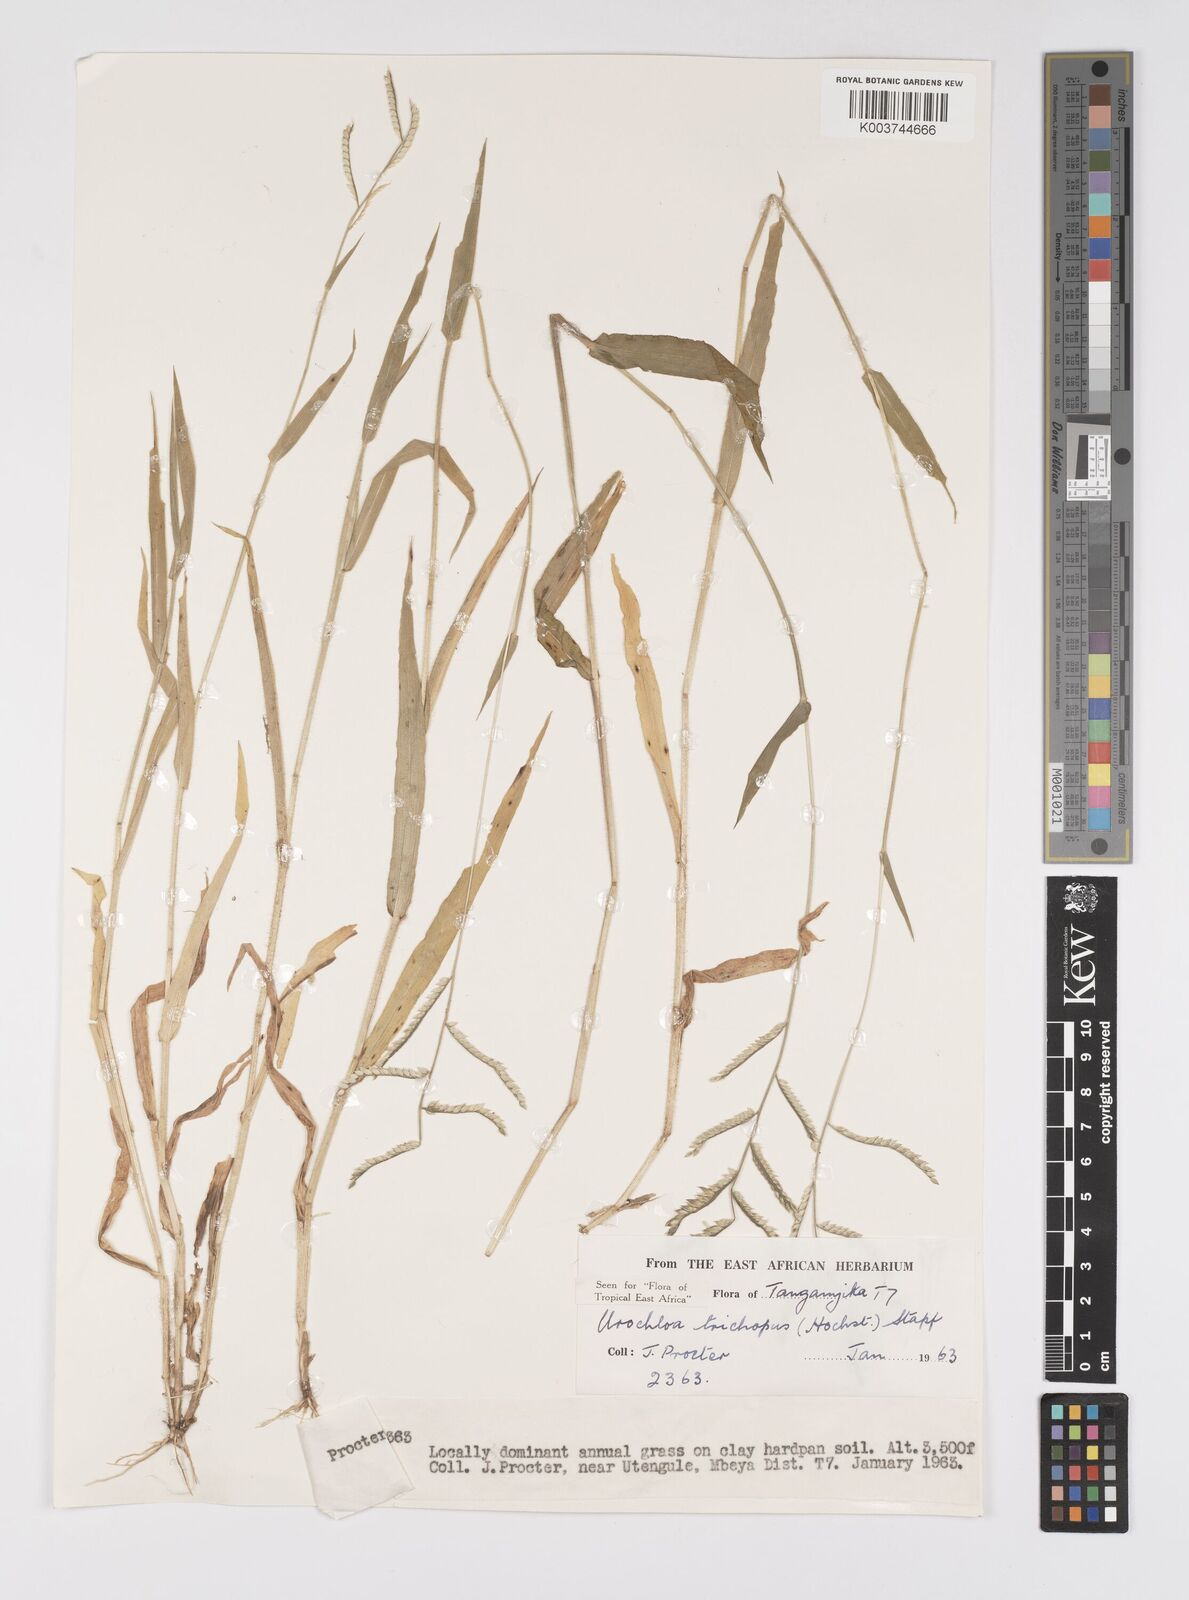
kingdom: Plantae
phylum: Tracheophyta
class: Liliopsida
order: Poales
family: Poaceae
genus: Urochloa
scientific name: Urochloa trichopus
